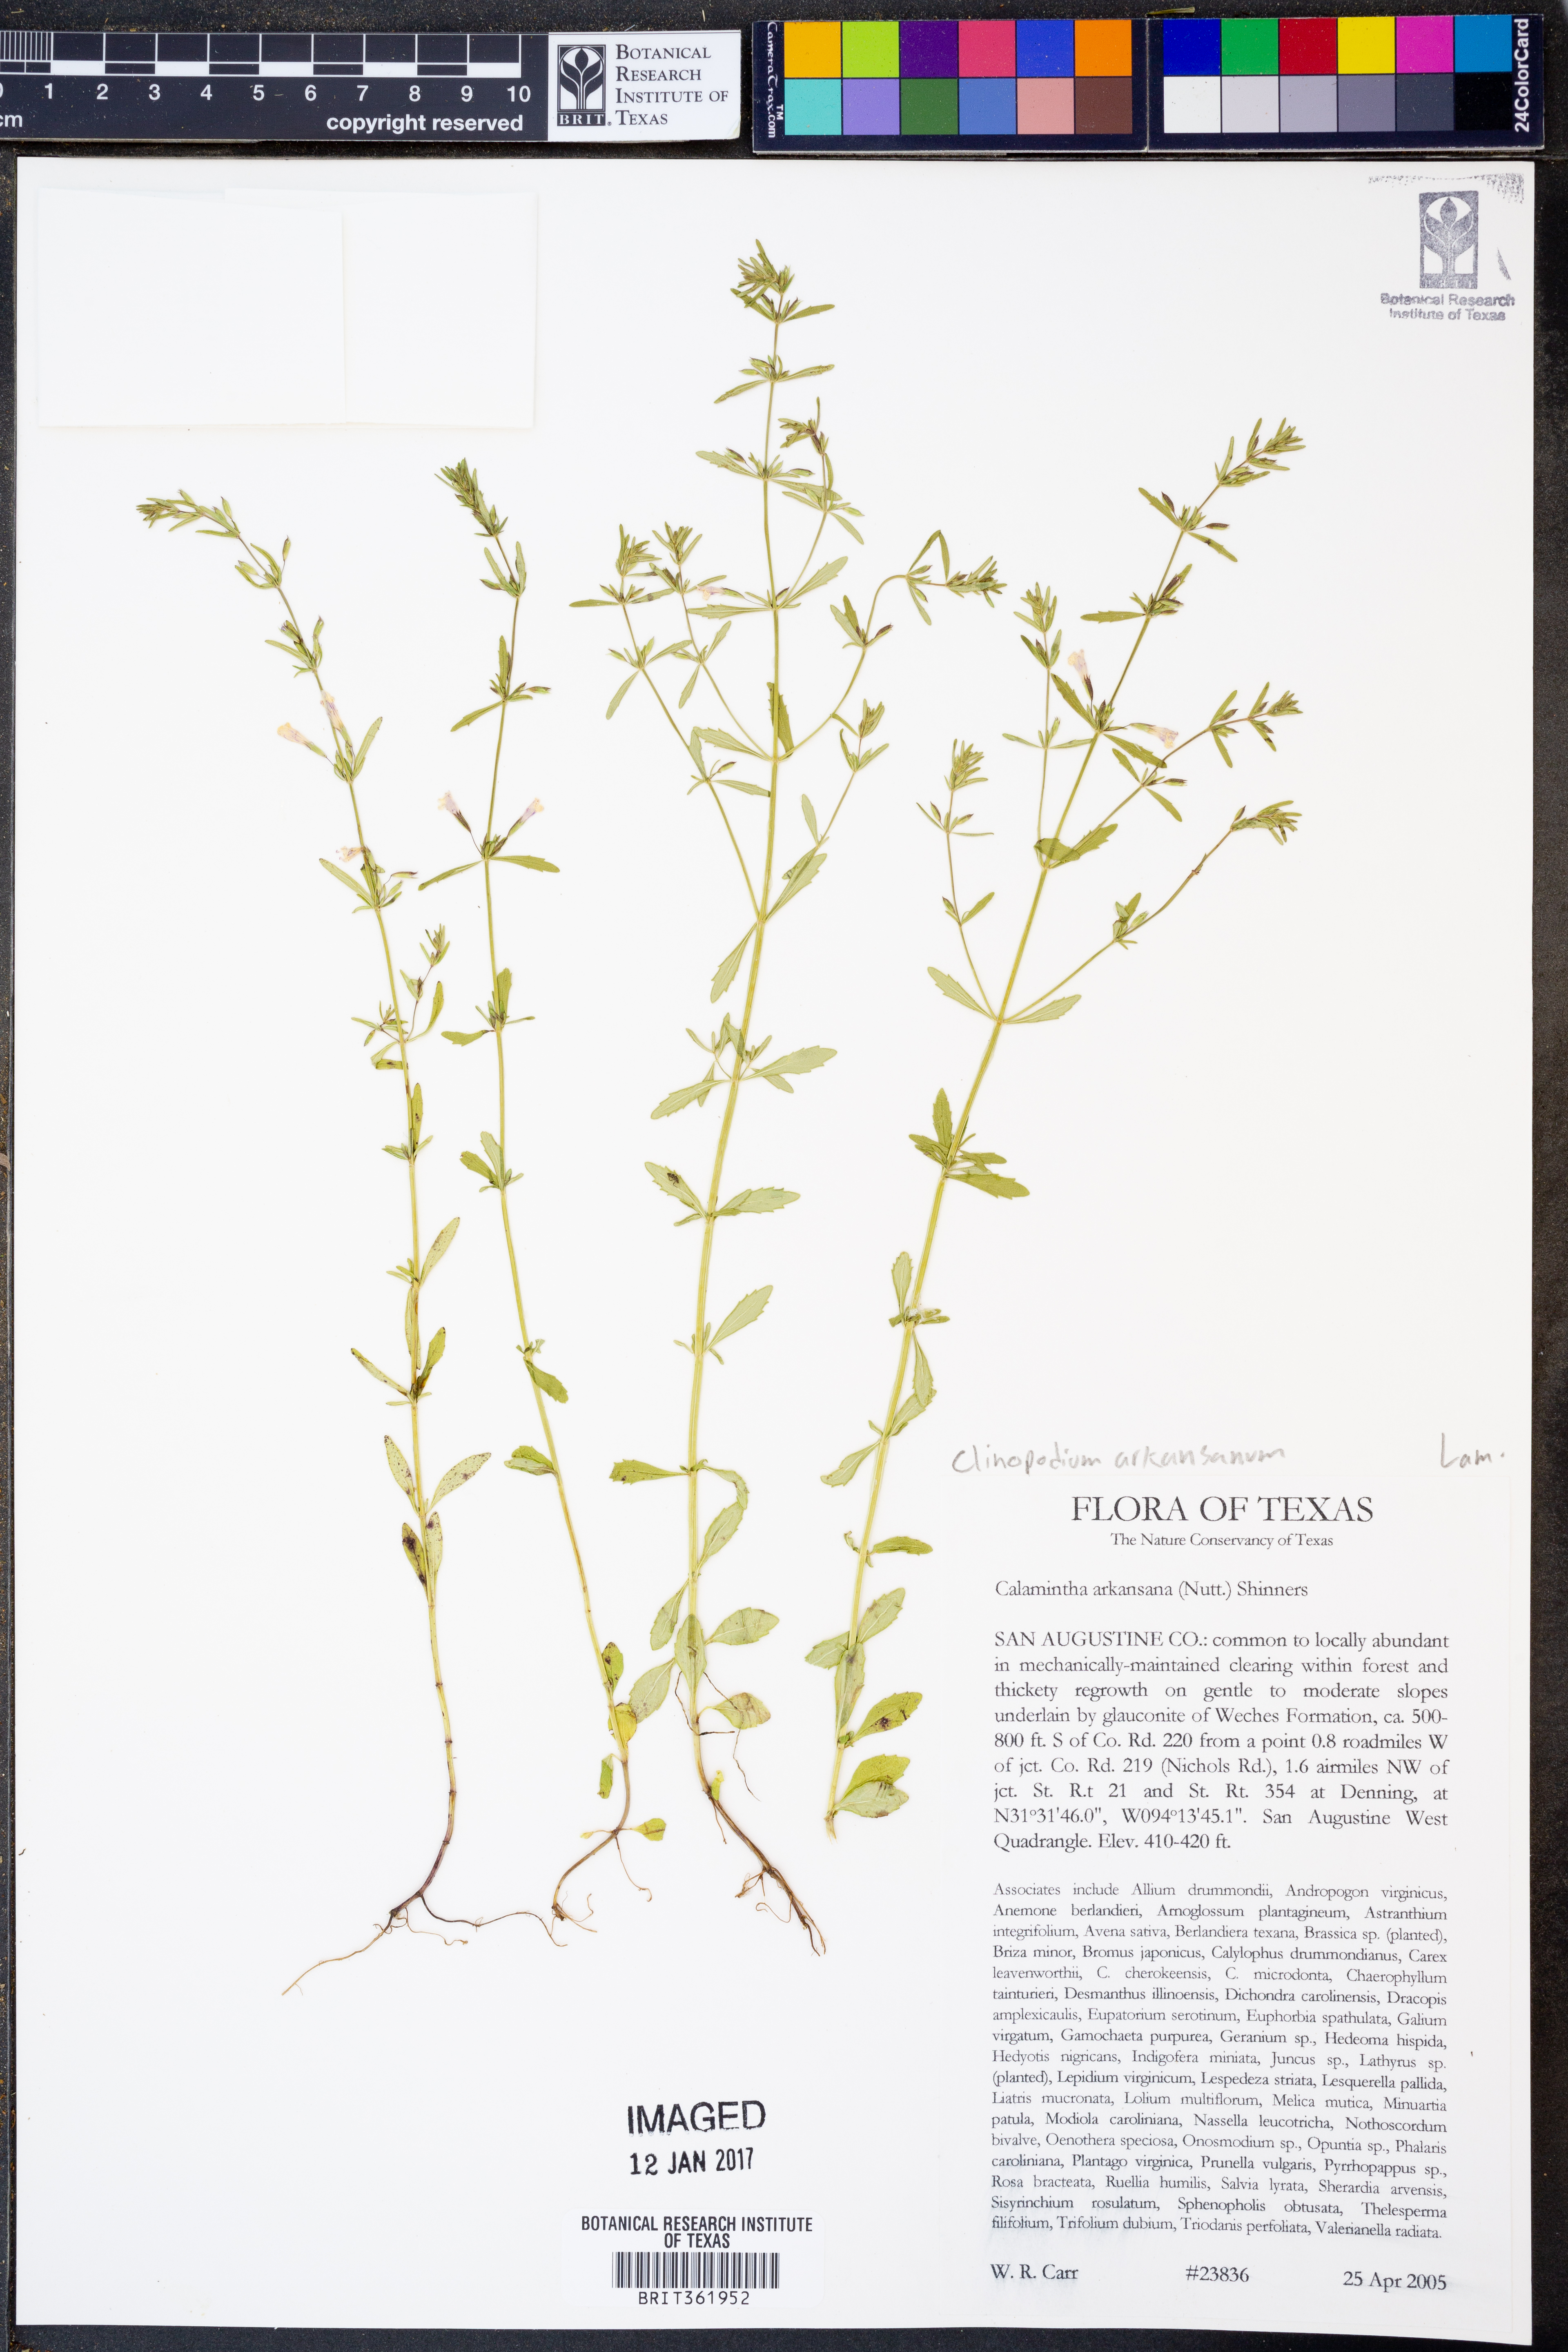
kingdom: Plantae
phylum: Tracheophyta
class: Magnoliopsida
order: Lamiales
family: Lamiaceae
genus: Clinopodium
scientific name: Clinopodium arkansanum
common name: Limestone calamint
